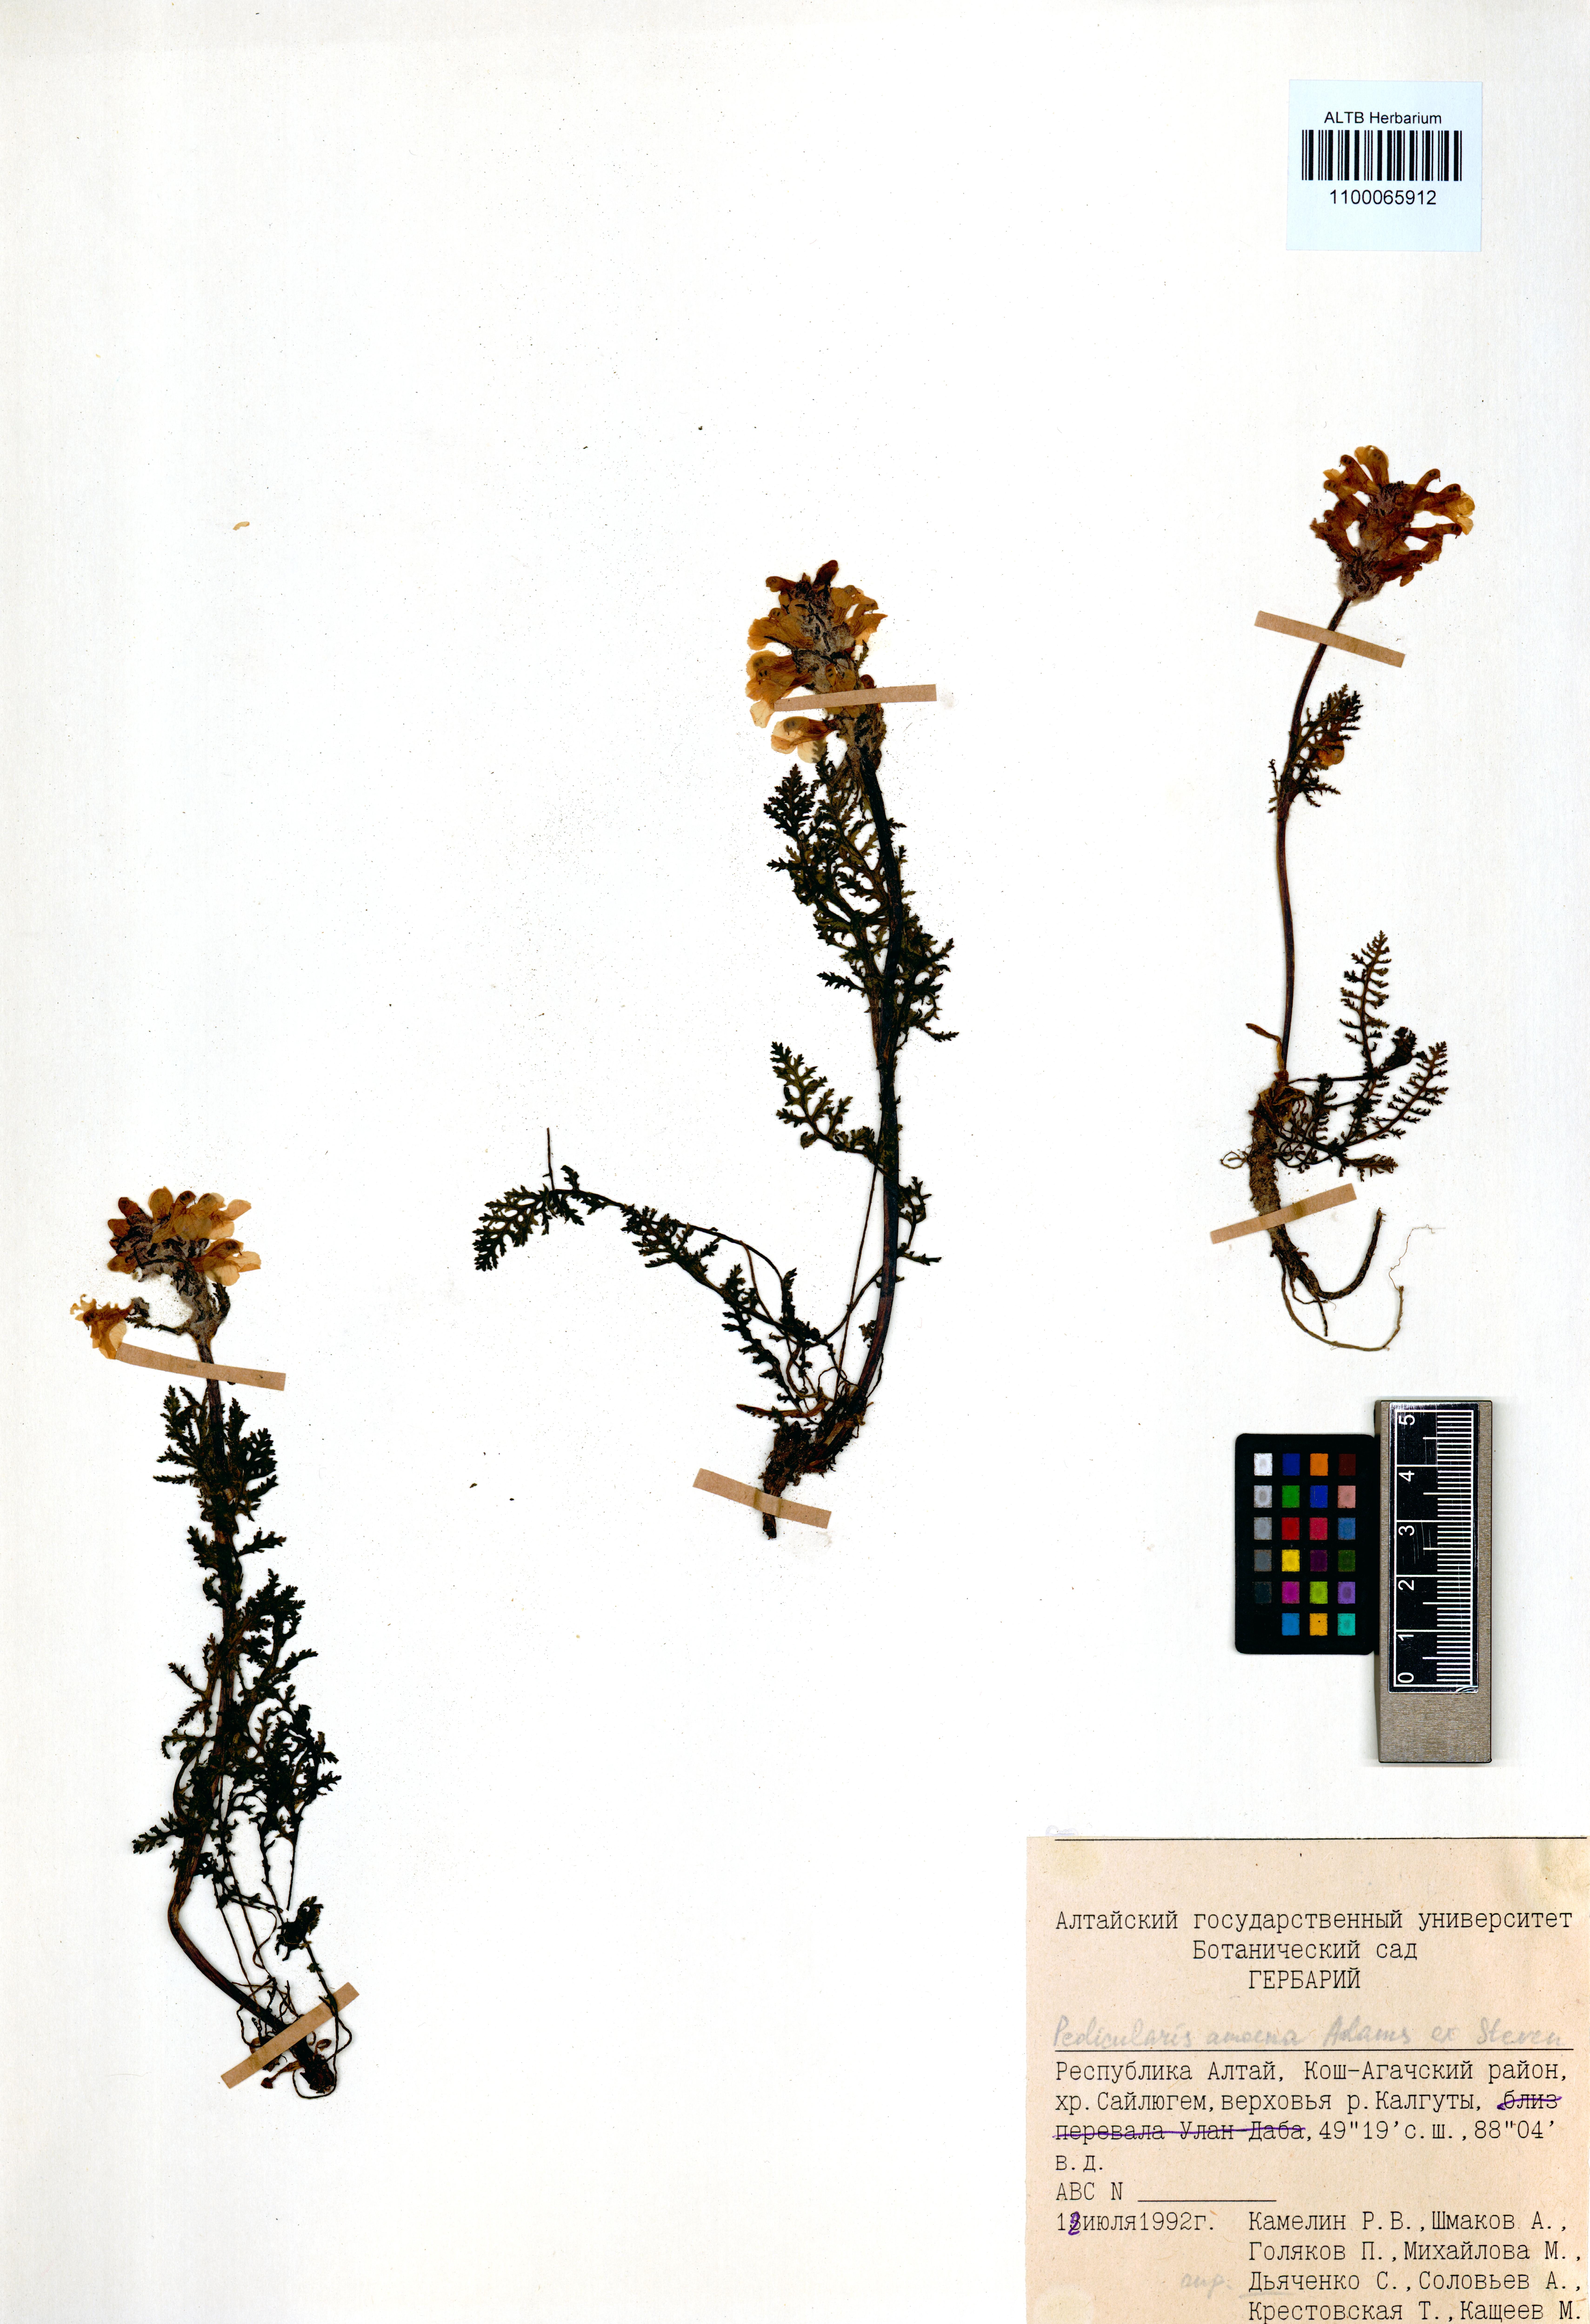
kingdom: Plantae
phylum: Tracheophyta
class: Magnoliopsida
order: Lamiales
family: Orobanchaceae
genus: Pedicularis
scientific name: Pedicularis amoena
